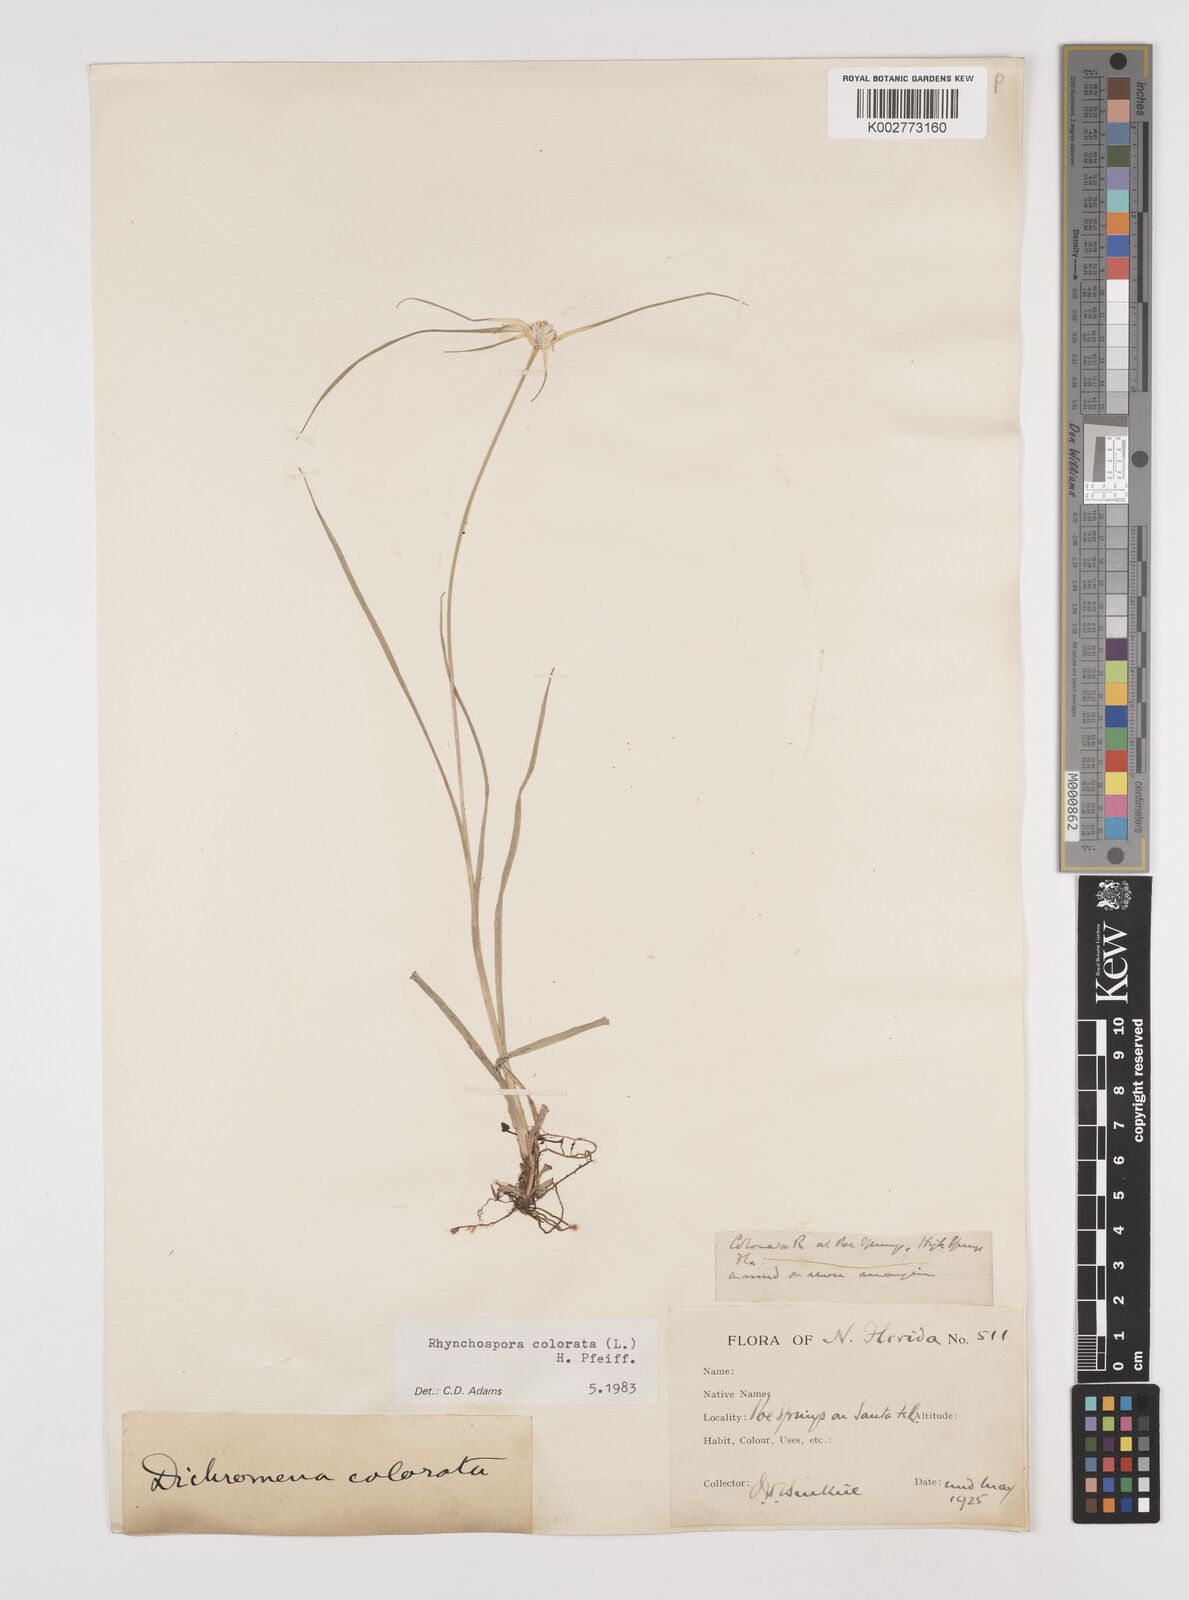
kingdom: Plantae
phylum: Tracheophyta
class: Liliopsida
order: Poales
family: Cyperaceae
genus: Rhynchospora
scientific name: Rhynchospora colorata
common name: Star sedge
